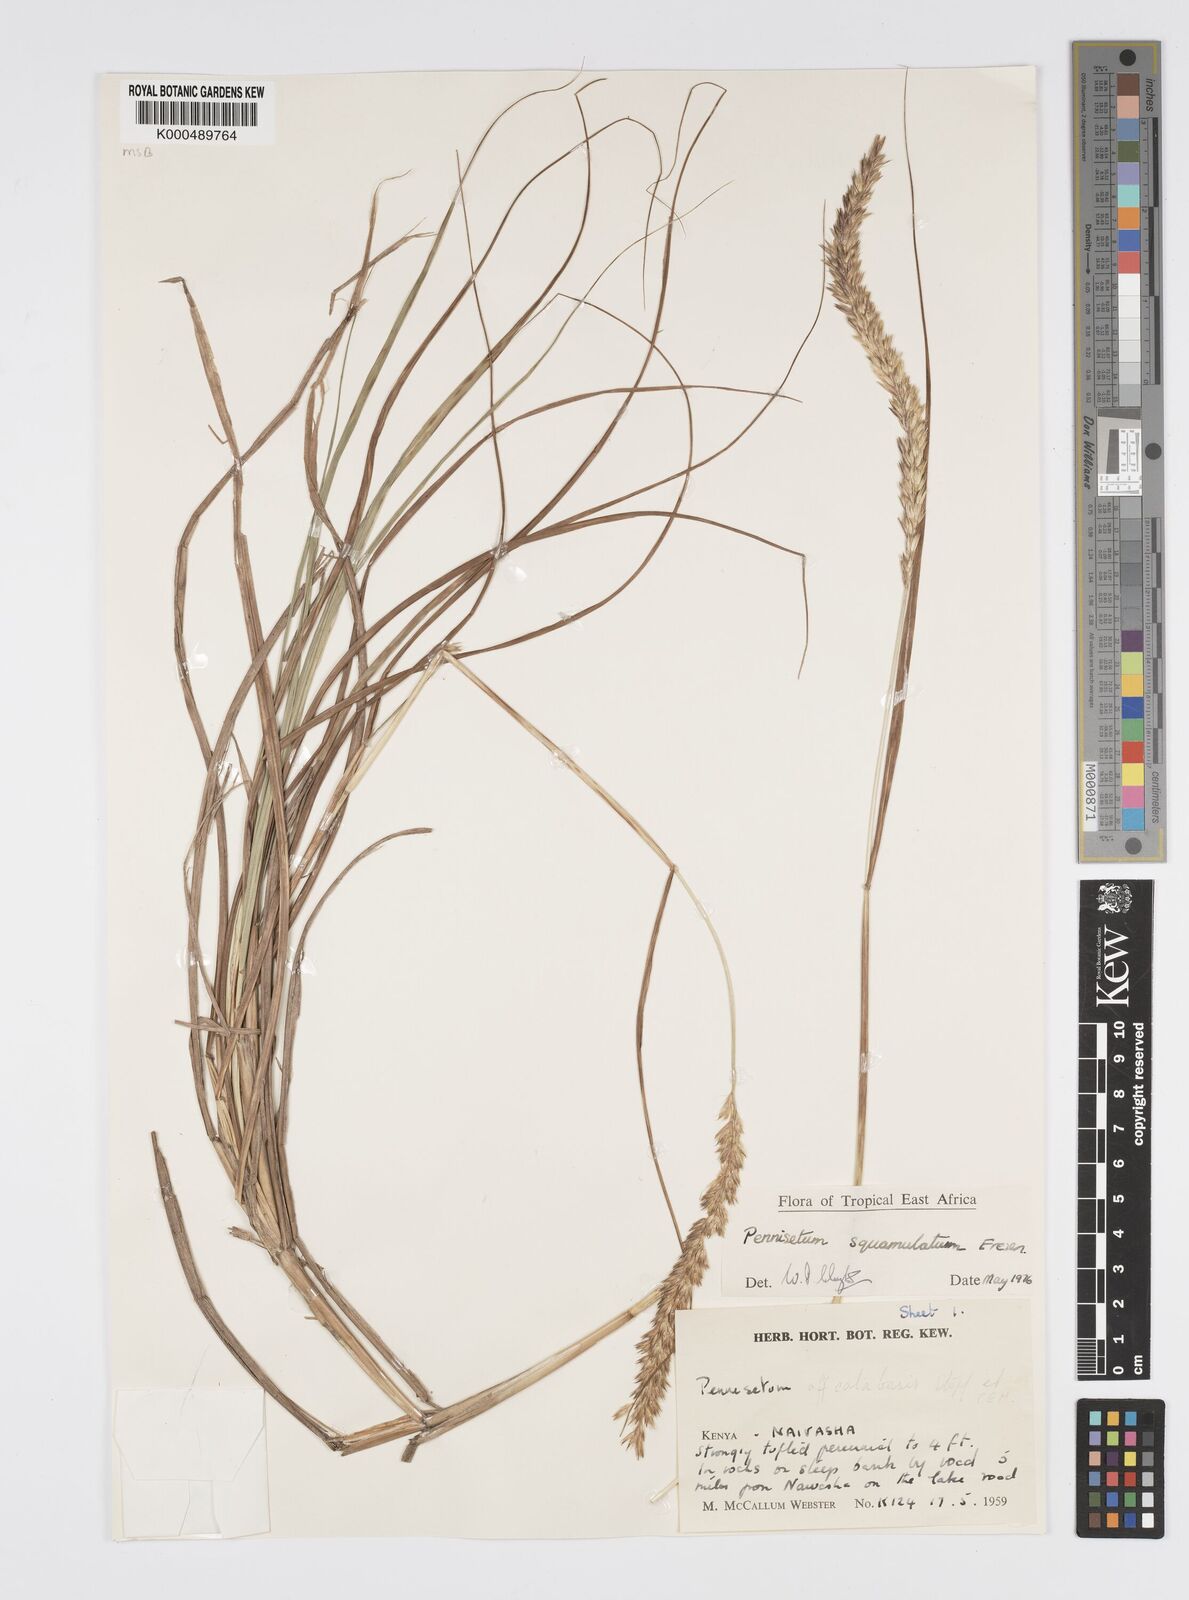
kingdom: Plantae
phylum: Tracheophyta
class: Liliopsida
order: Poales
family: Poaceae
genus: Cenchrus
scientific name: Cenchrus squamulatus
